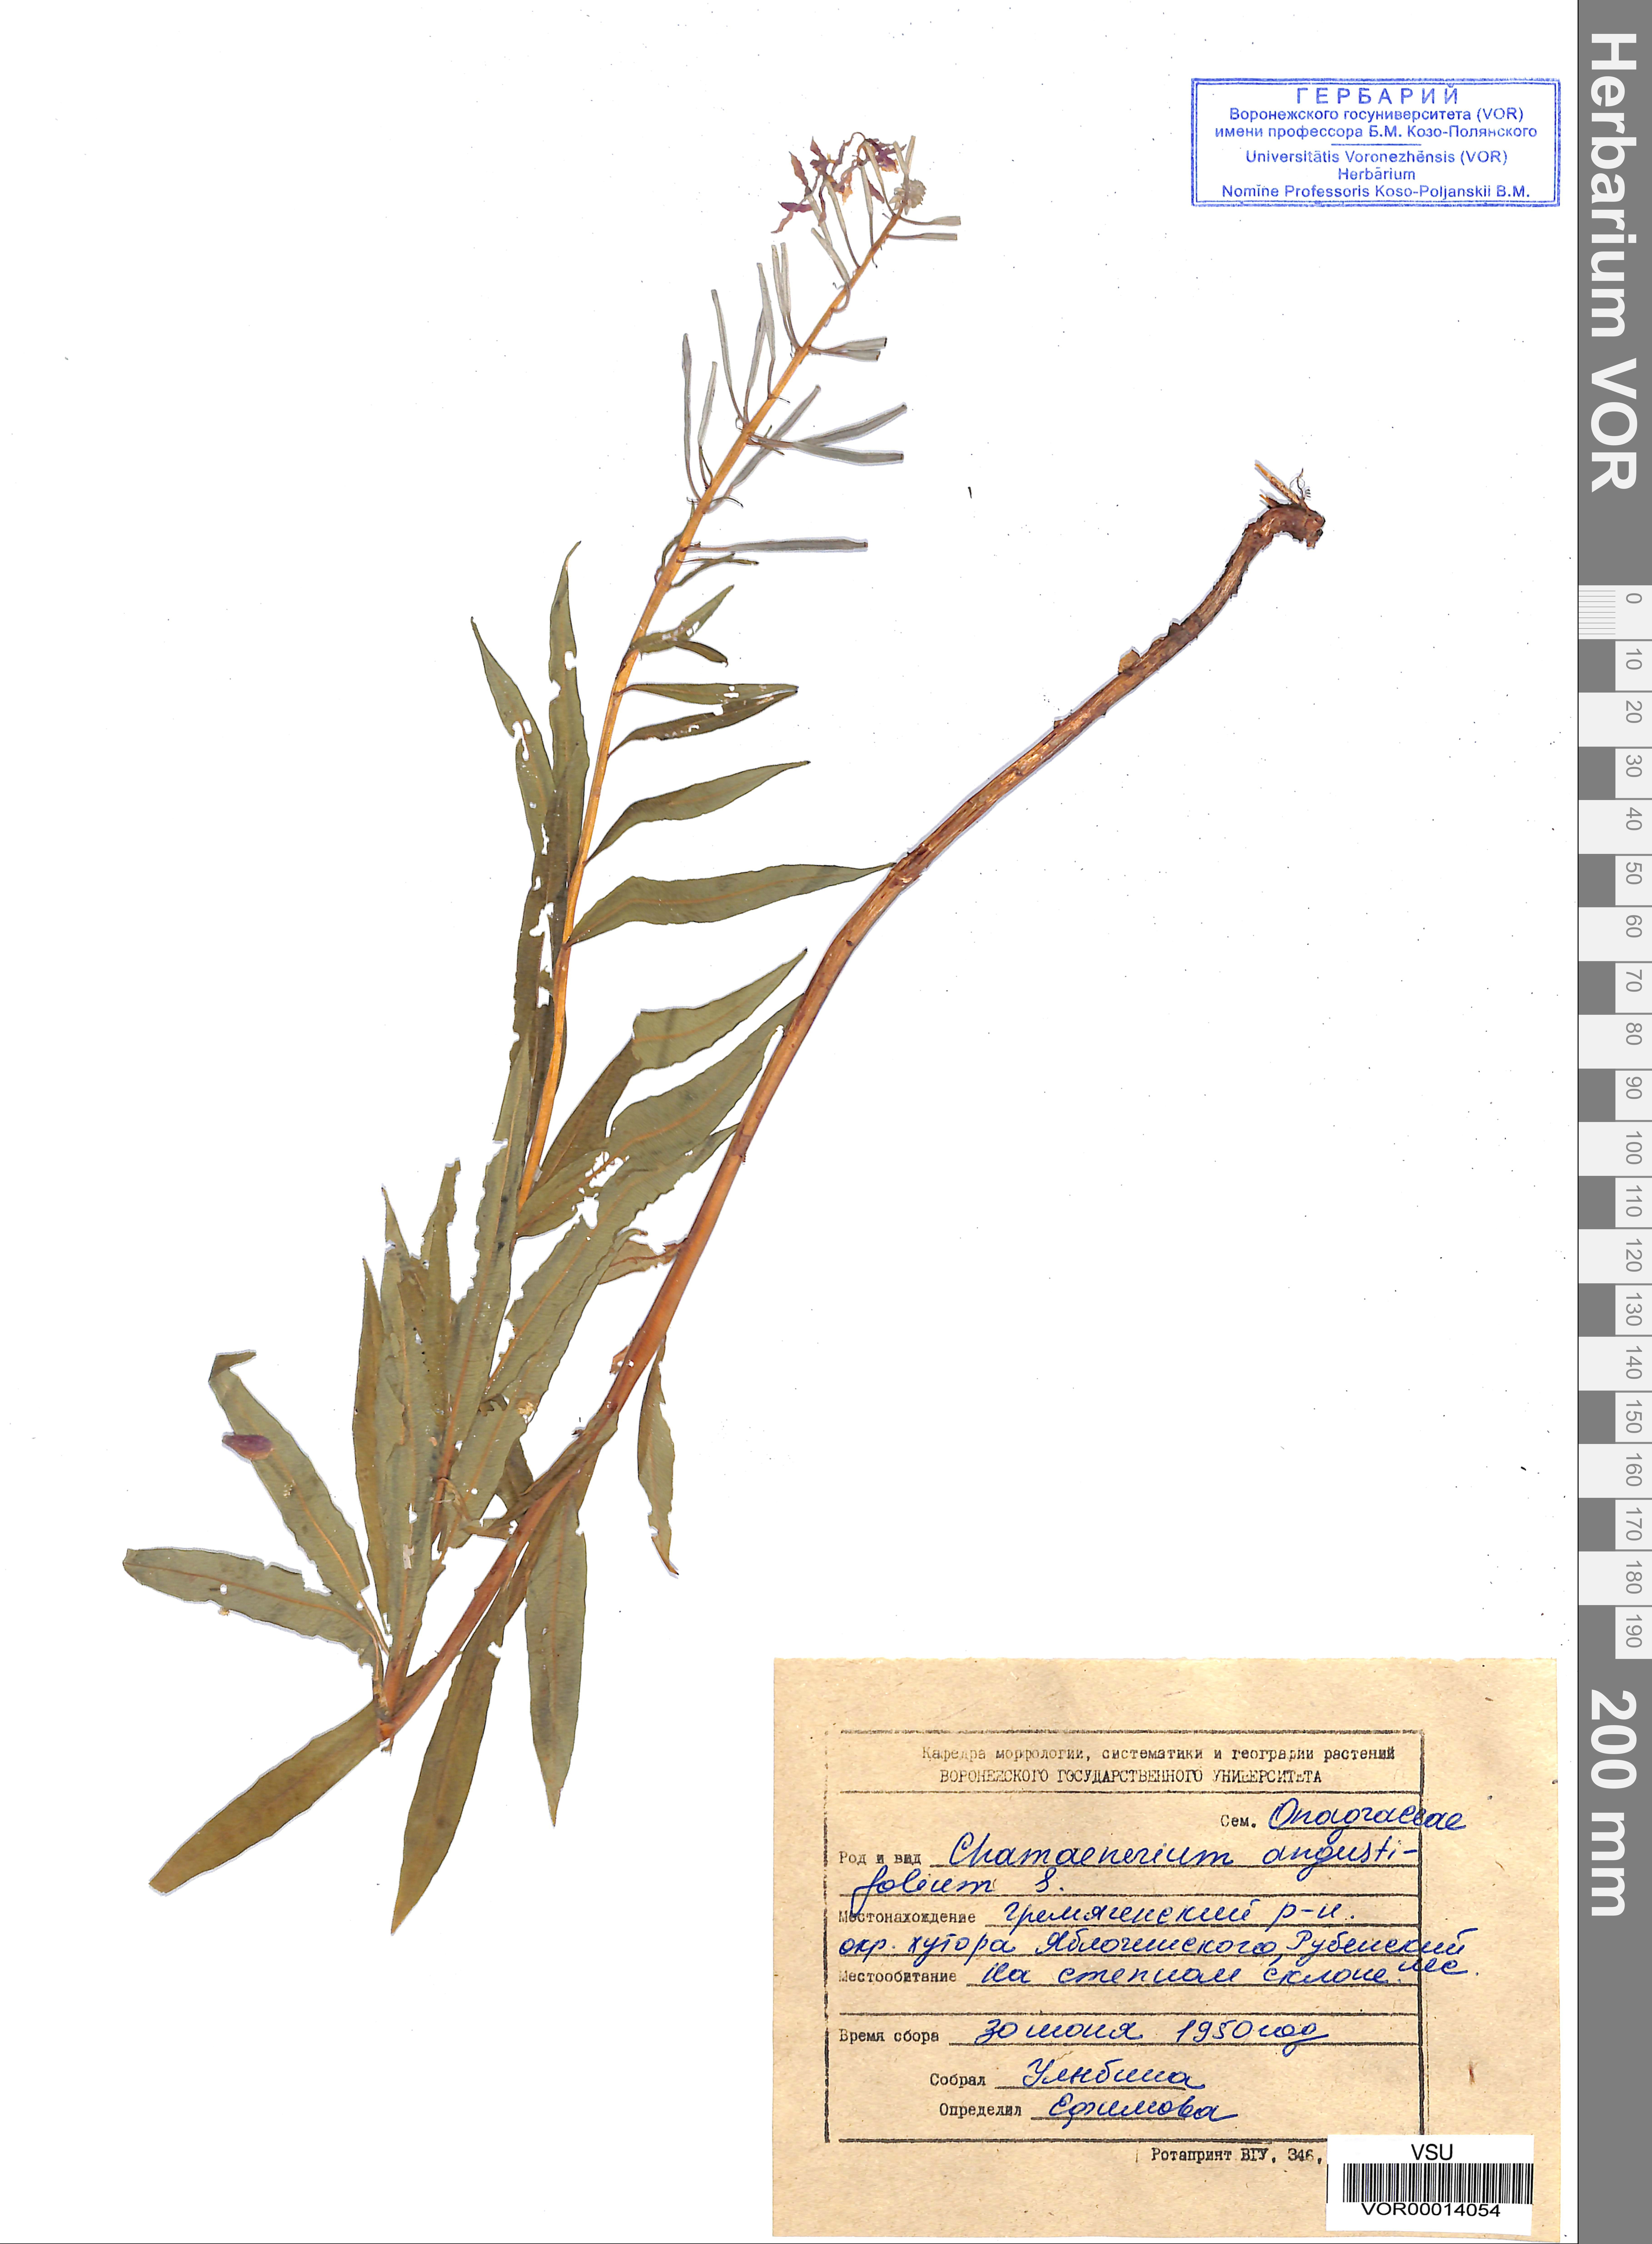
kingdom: Plantae
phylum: Tracheophyta
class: Magnoliopsida
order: Myrtales
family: Onagraceae
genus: Chamaenerion
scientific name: Chamaenerion angustifolium
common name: Fireweed
